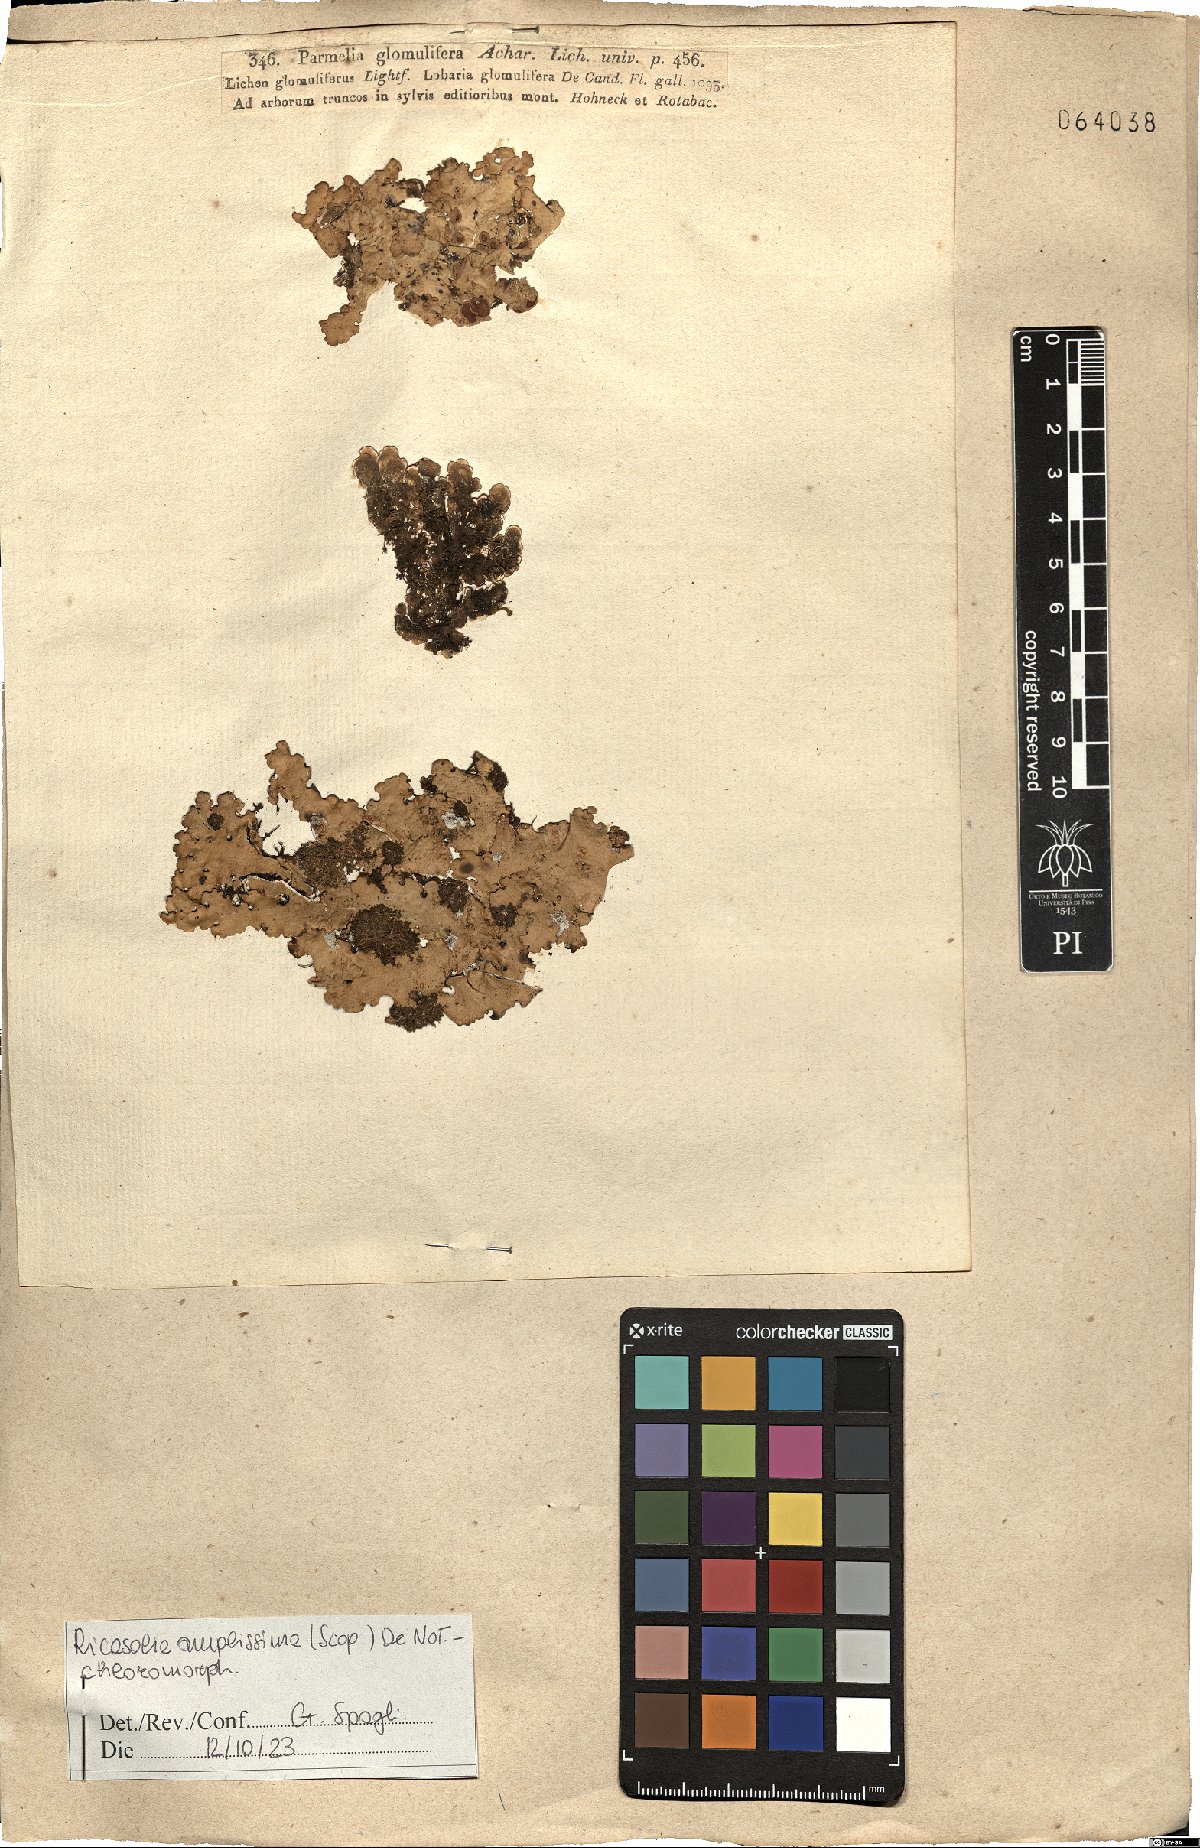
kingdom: Fungi
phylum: Ascomycota
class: Lecanoromycetes
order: Peltigerales
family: Lobariaceae
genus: Ricasolia
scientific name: Ricasolia amplissima
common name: Giant candlewax lichen
